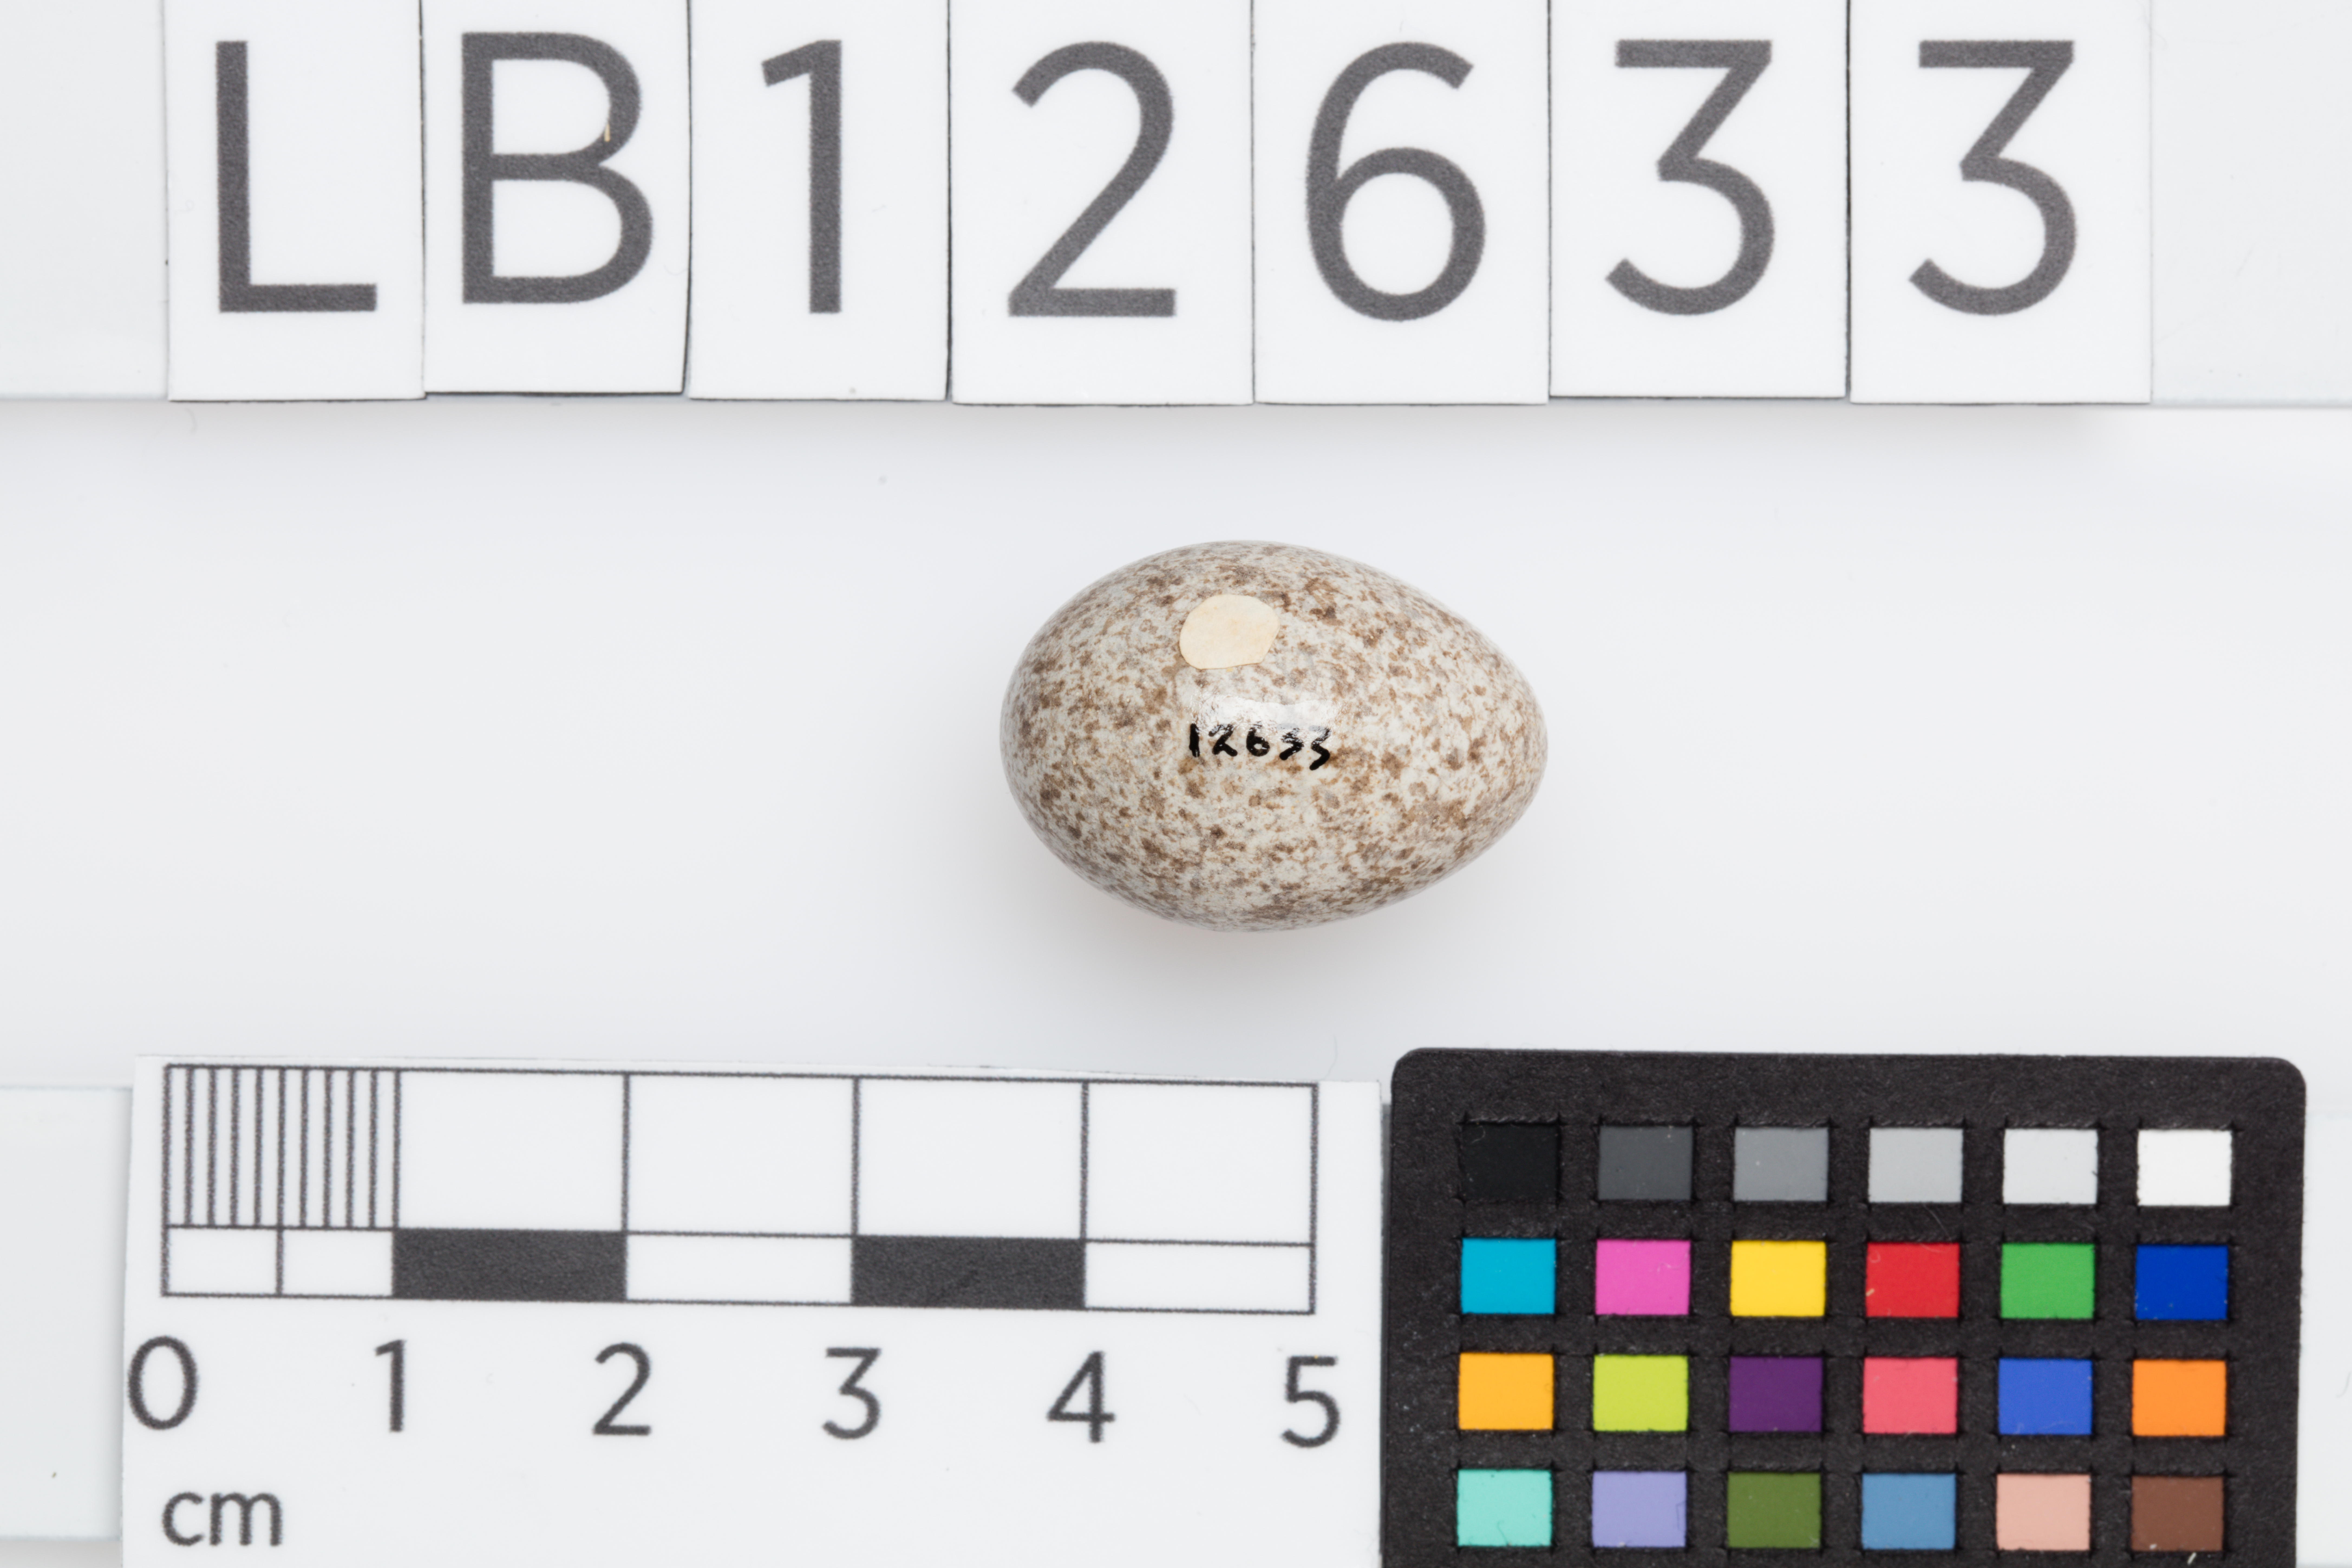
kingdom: Animalia
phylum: Chordata
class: Aves
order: Passeriformes
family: Motacillidae
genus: Anthus
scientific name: Anthus australis
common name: Australian pipit
